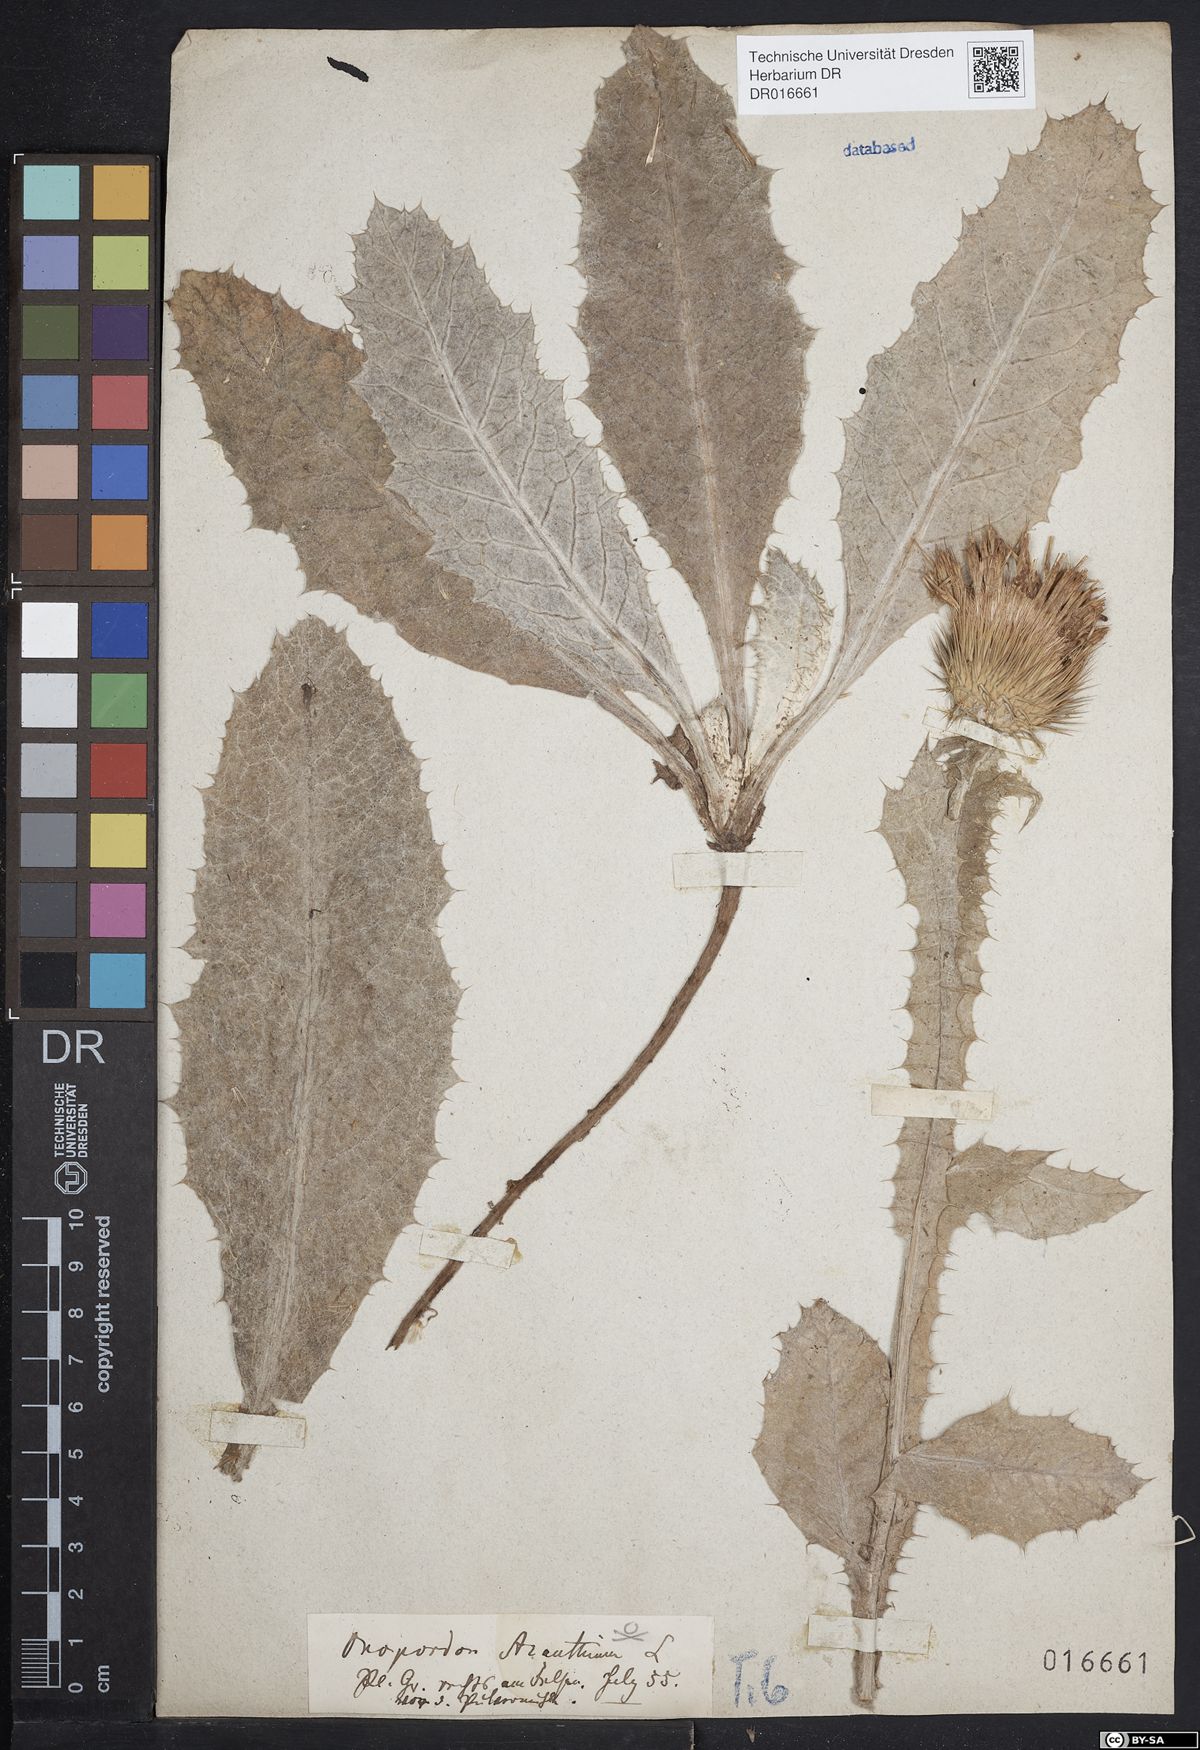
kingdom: Plantae
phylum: Tracheophyta
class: Magnoliopsida
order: Asterales
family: Asteraceae
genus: Onopordum
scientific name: Onopordum acanthium
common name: Scotch thistle
